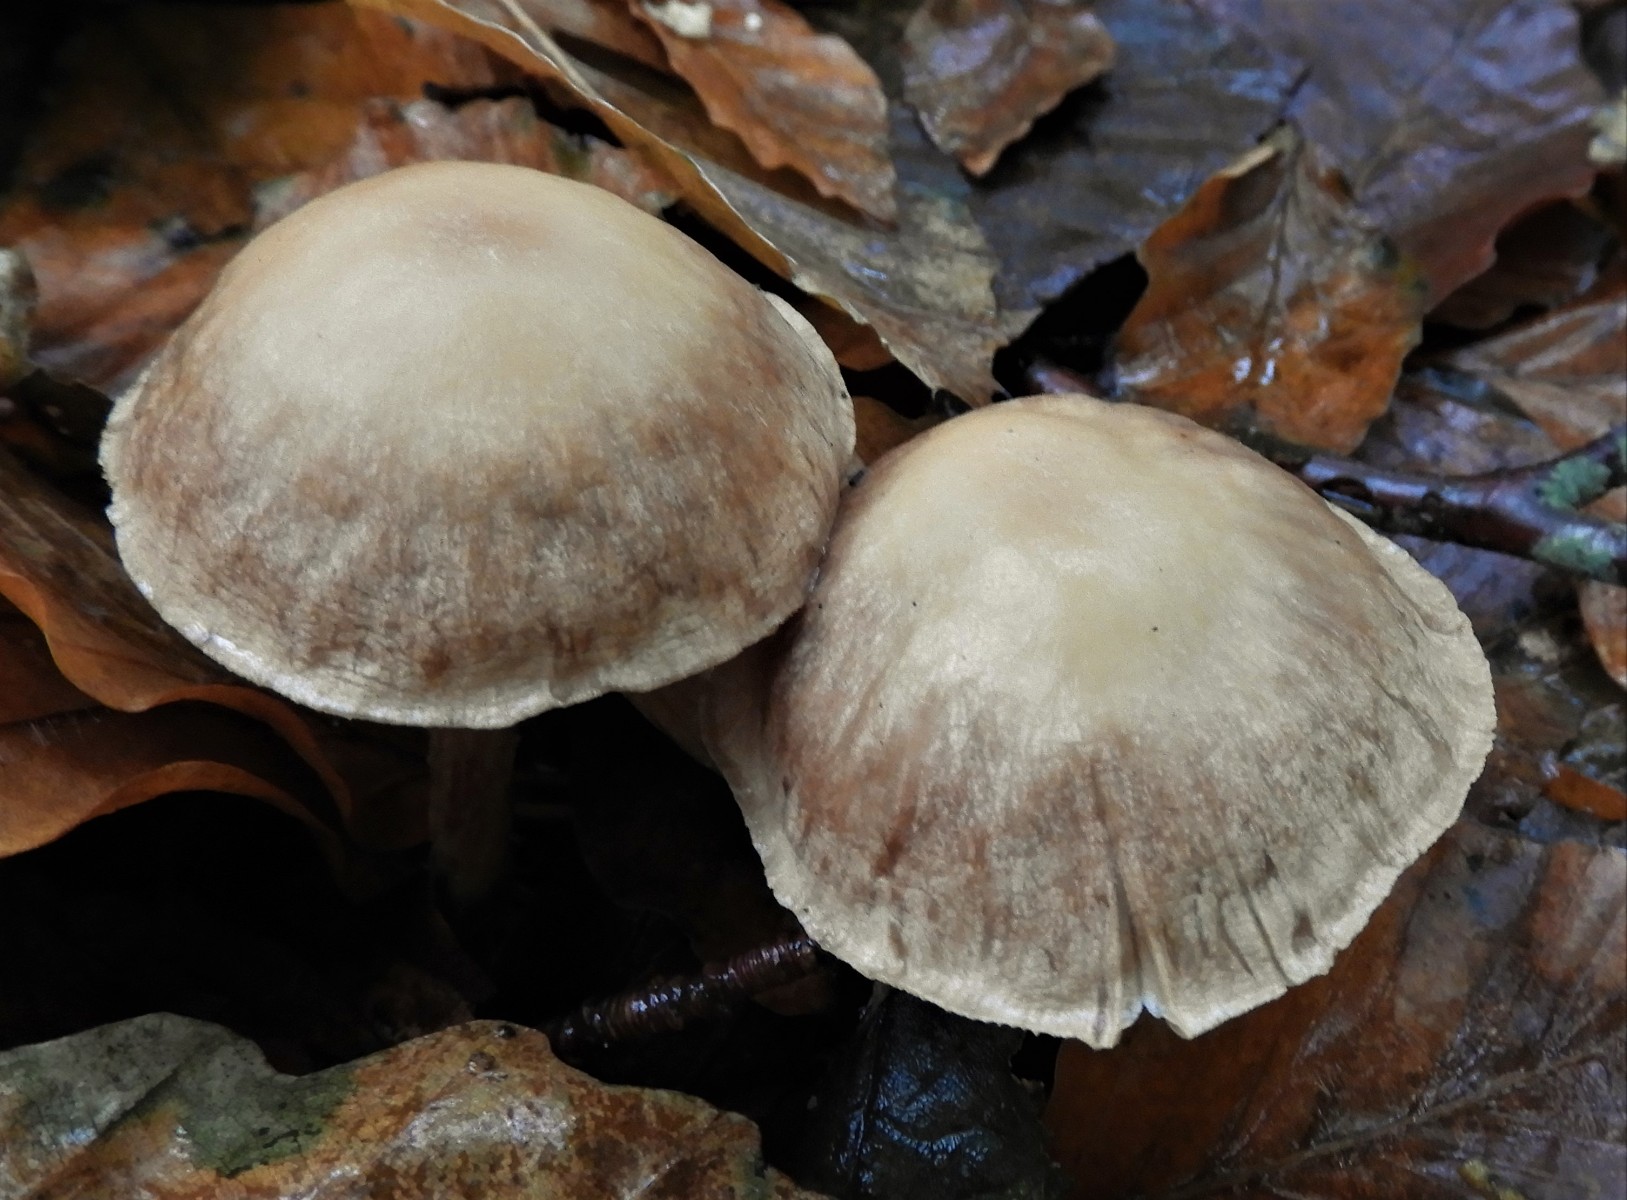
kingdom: Fungi
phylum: Basidiomycota
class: Agaricomycetes
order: Agaricales
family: Omphalotaceae
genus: Collybiopsis
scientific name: Collybiopsis peronata
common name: bestøvlet fladhat
